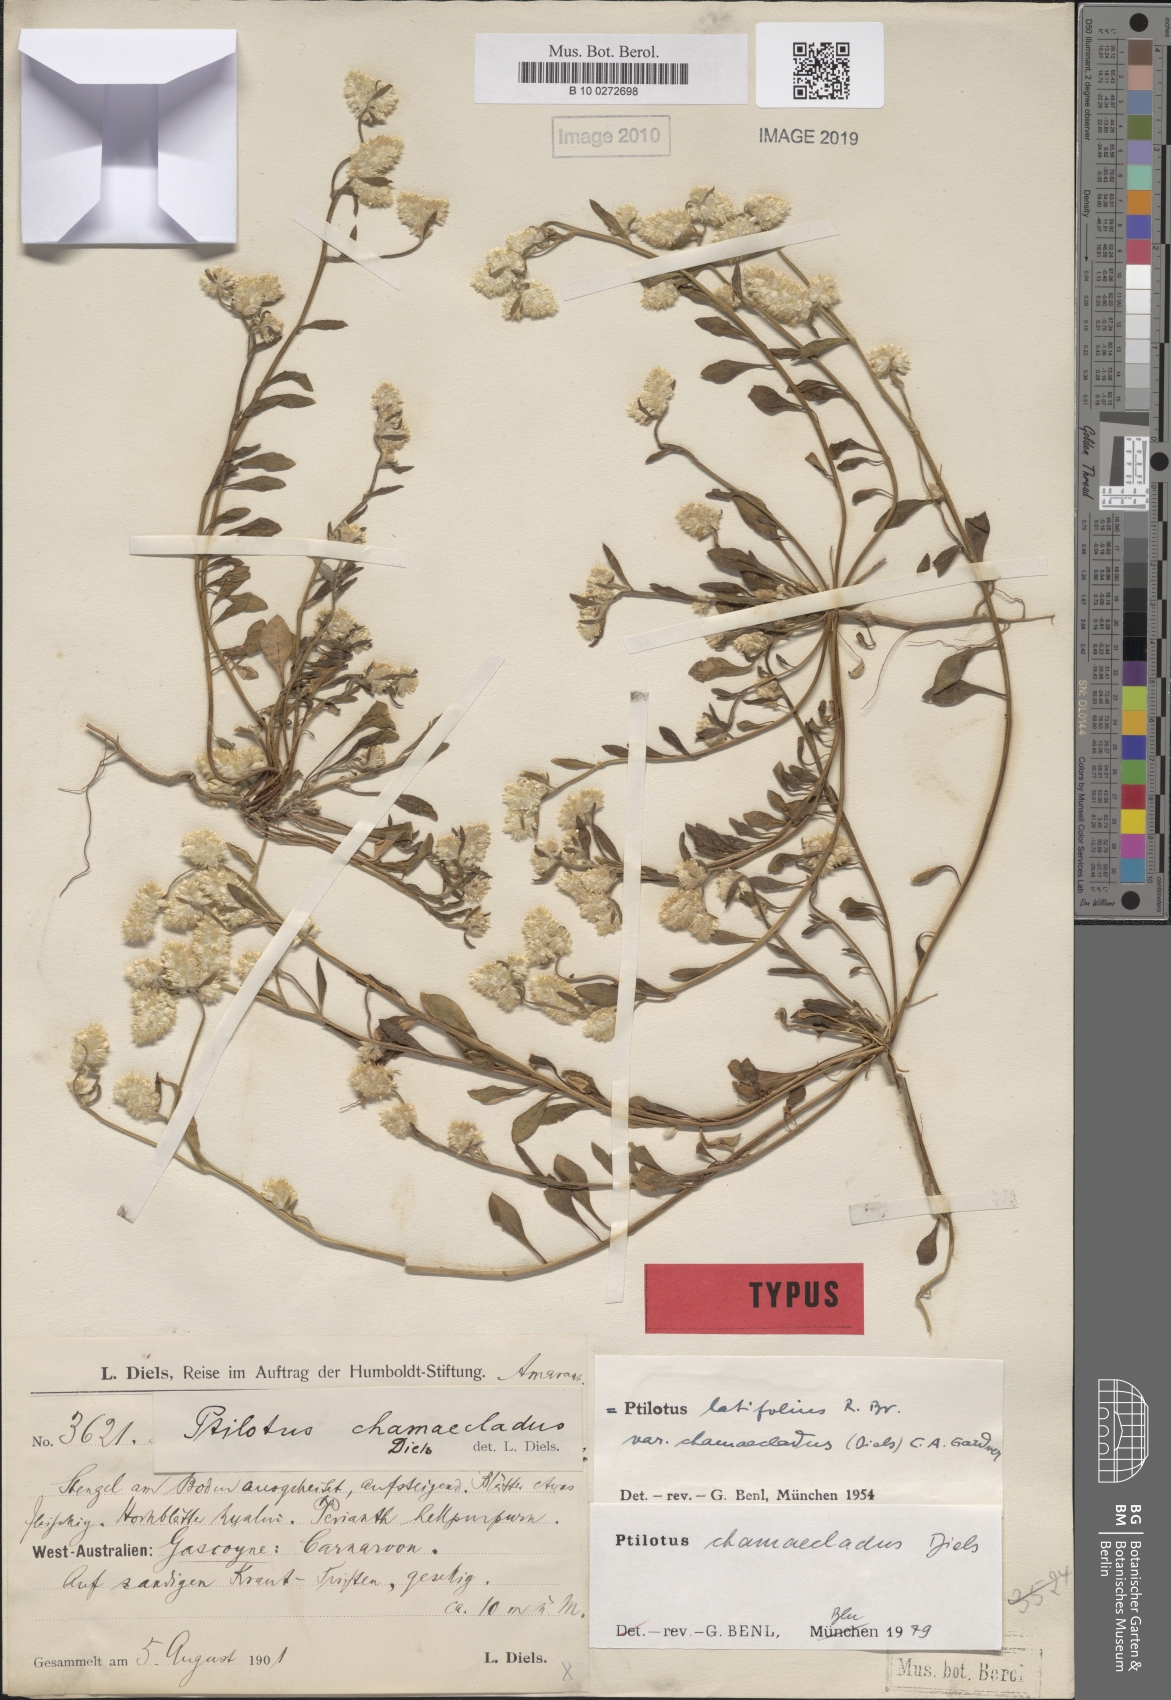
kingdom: Plantae
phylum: Tracheophyta
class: Magnoliopsida
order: Caryophyllales
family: Amaranthaceae
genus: Ptilotus
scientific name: Ptilotus chamaecladus
